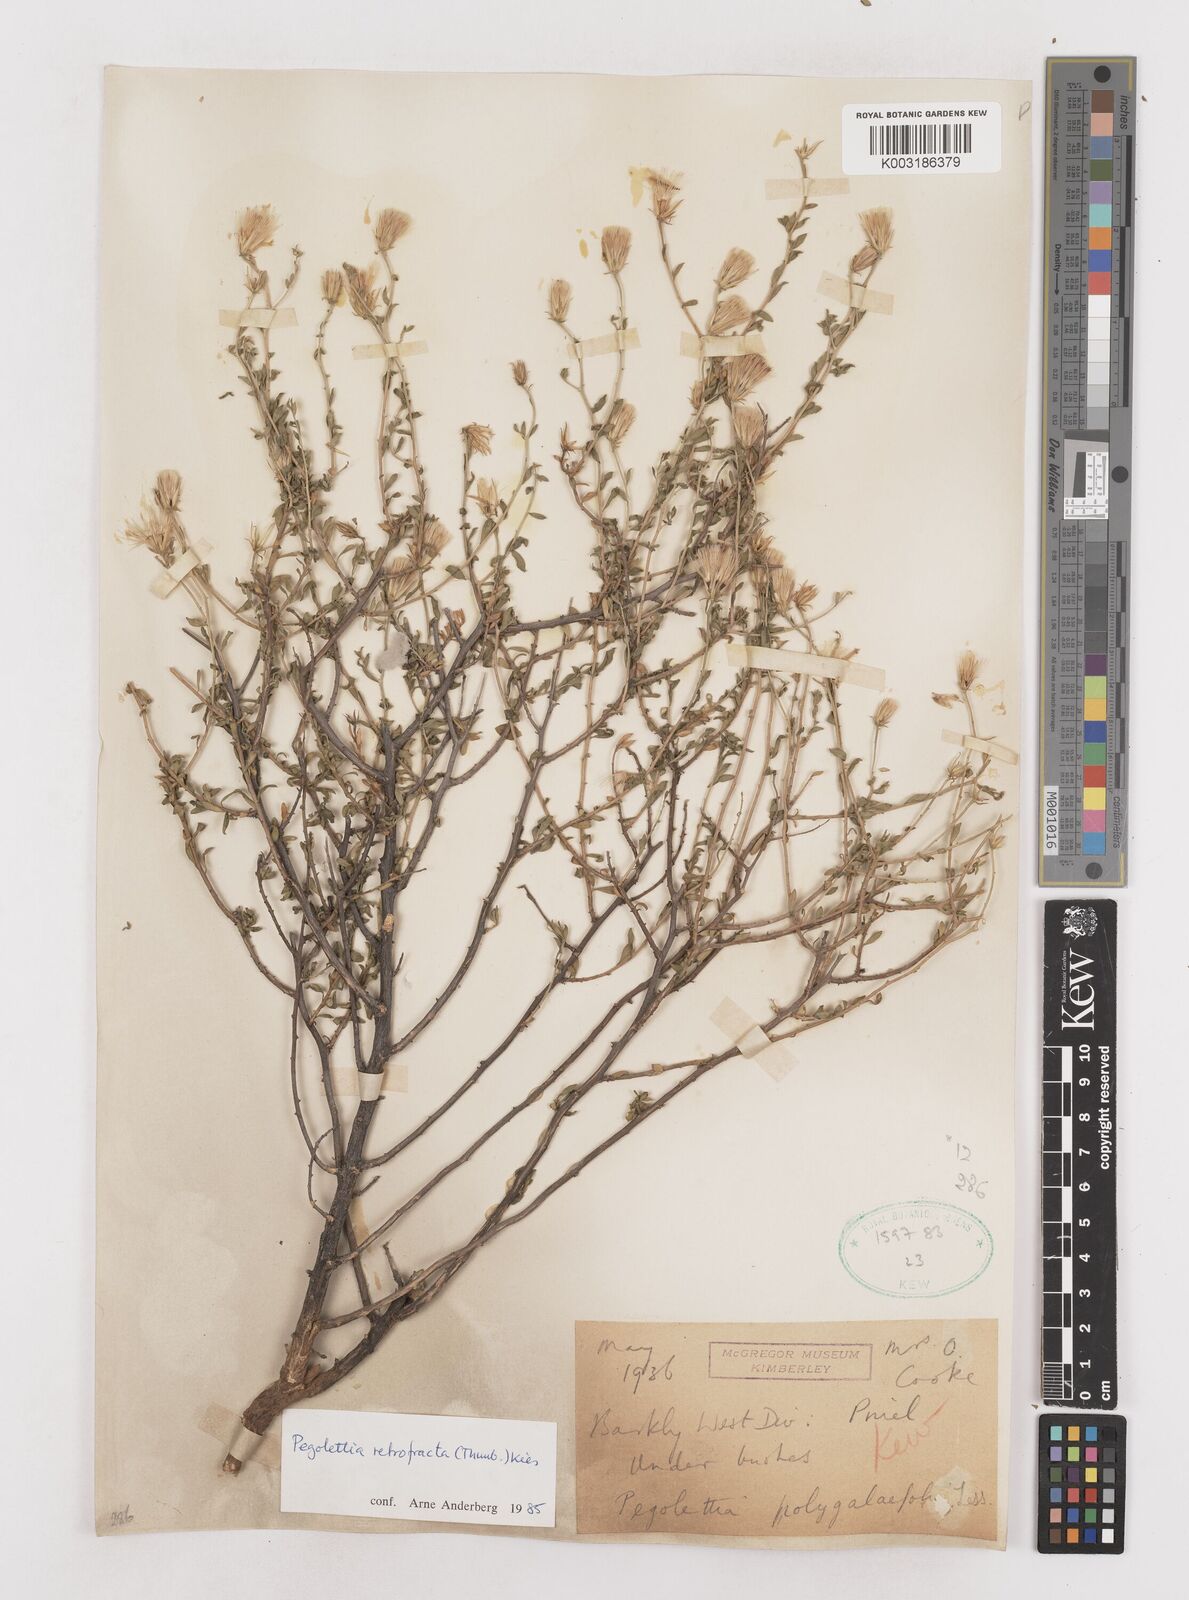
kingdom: Plantae
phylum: Tracheophyta
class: Magnoliopsida
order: Asterales
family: Asteraceae
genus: Pegolettia
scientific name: Pegolettia retrofracta
